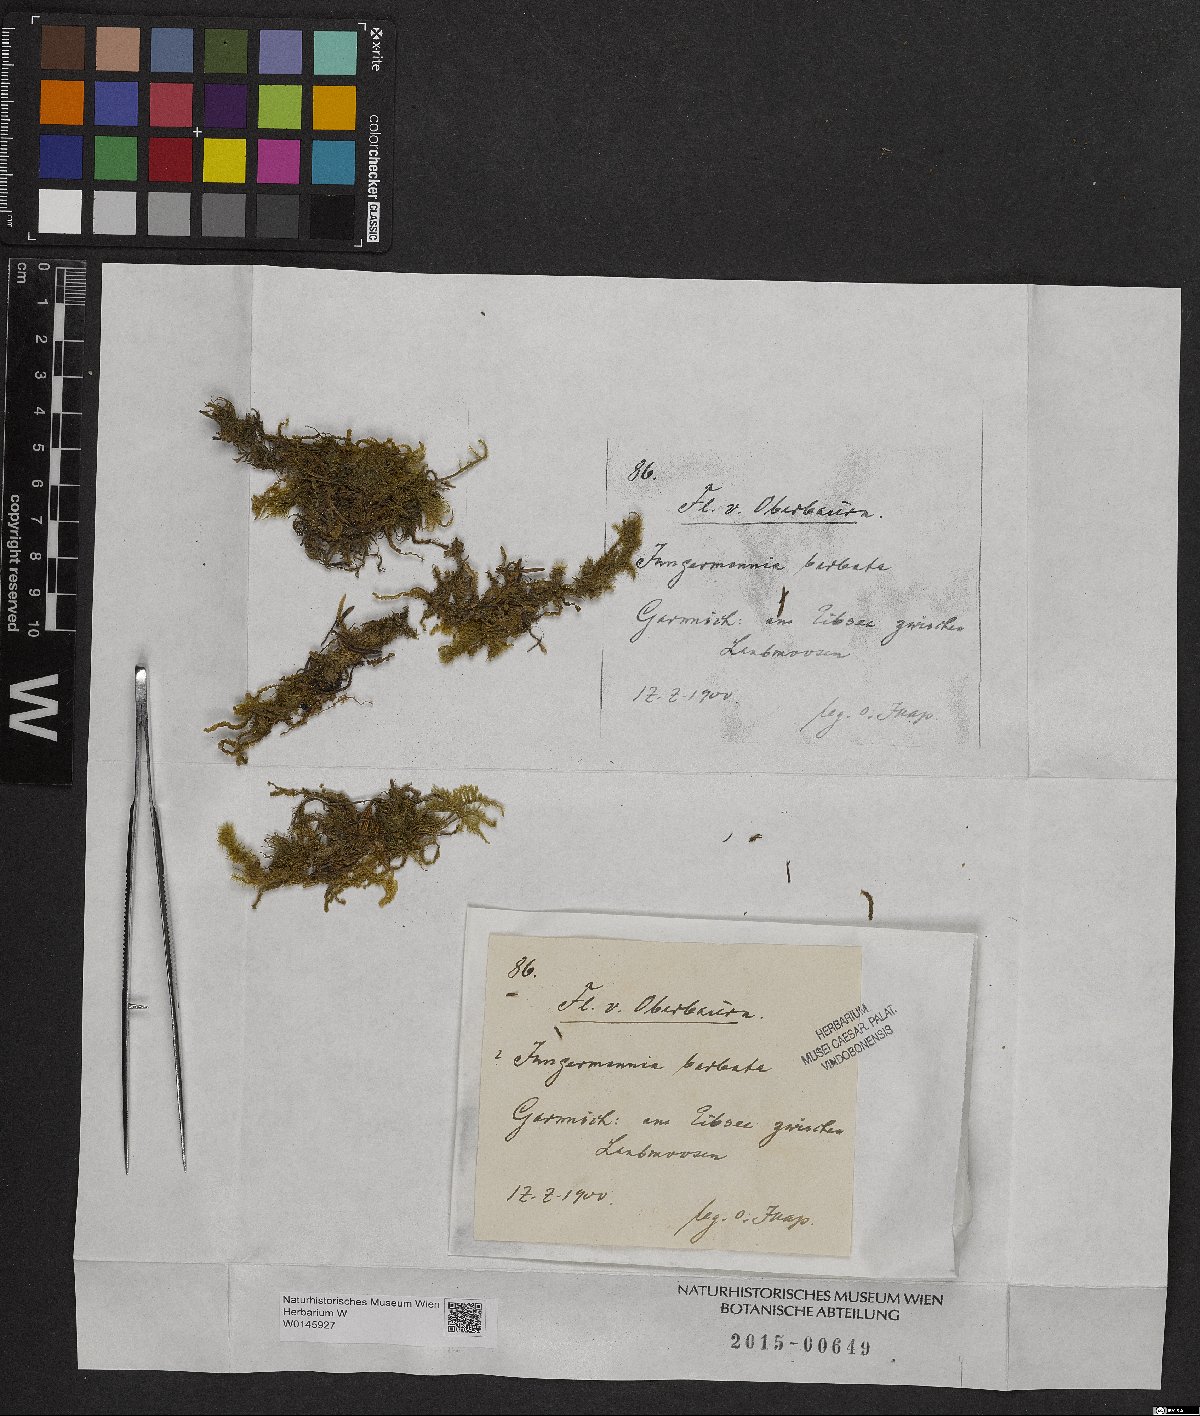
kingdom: Plantae
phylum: Marchantiophyta
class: Jungermanniopsida
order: Jungermanniales
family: Anastrophyllaceae
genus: Barbilophozia
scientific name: Barbilophozia barbata
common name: Bearded pawwort
